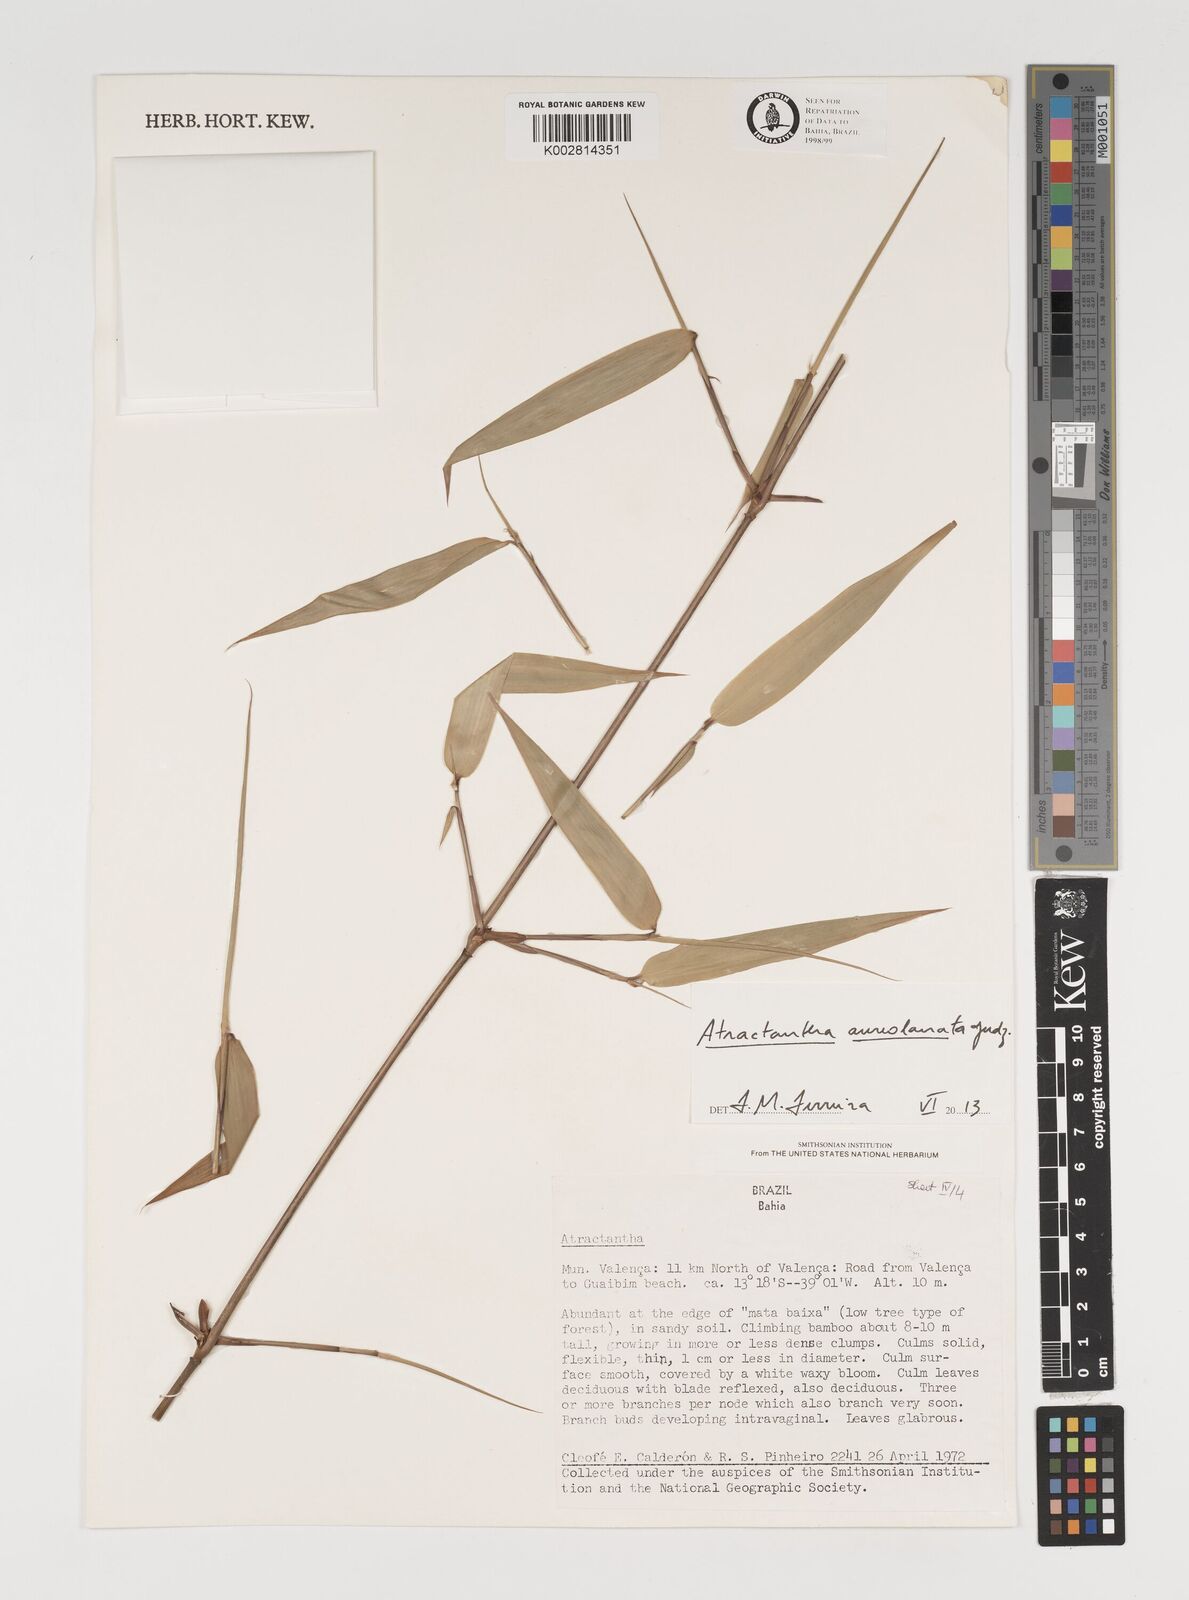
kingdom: Plantae
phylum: Tracheophyta
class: Liliopsida
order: Poales
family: Poaceae
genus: Atractantha
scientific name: Atractantha aureolanata
